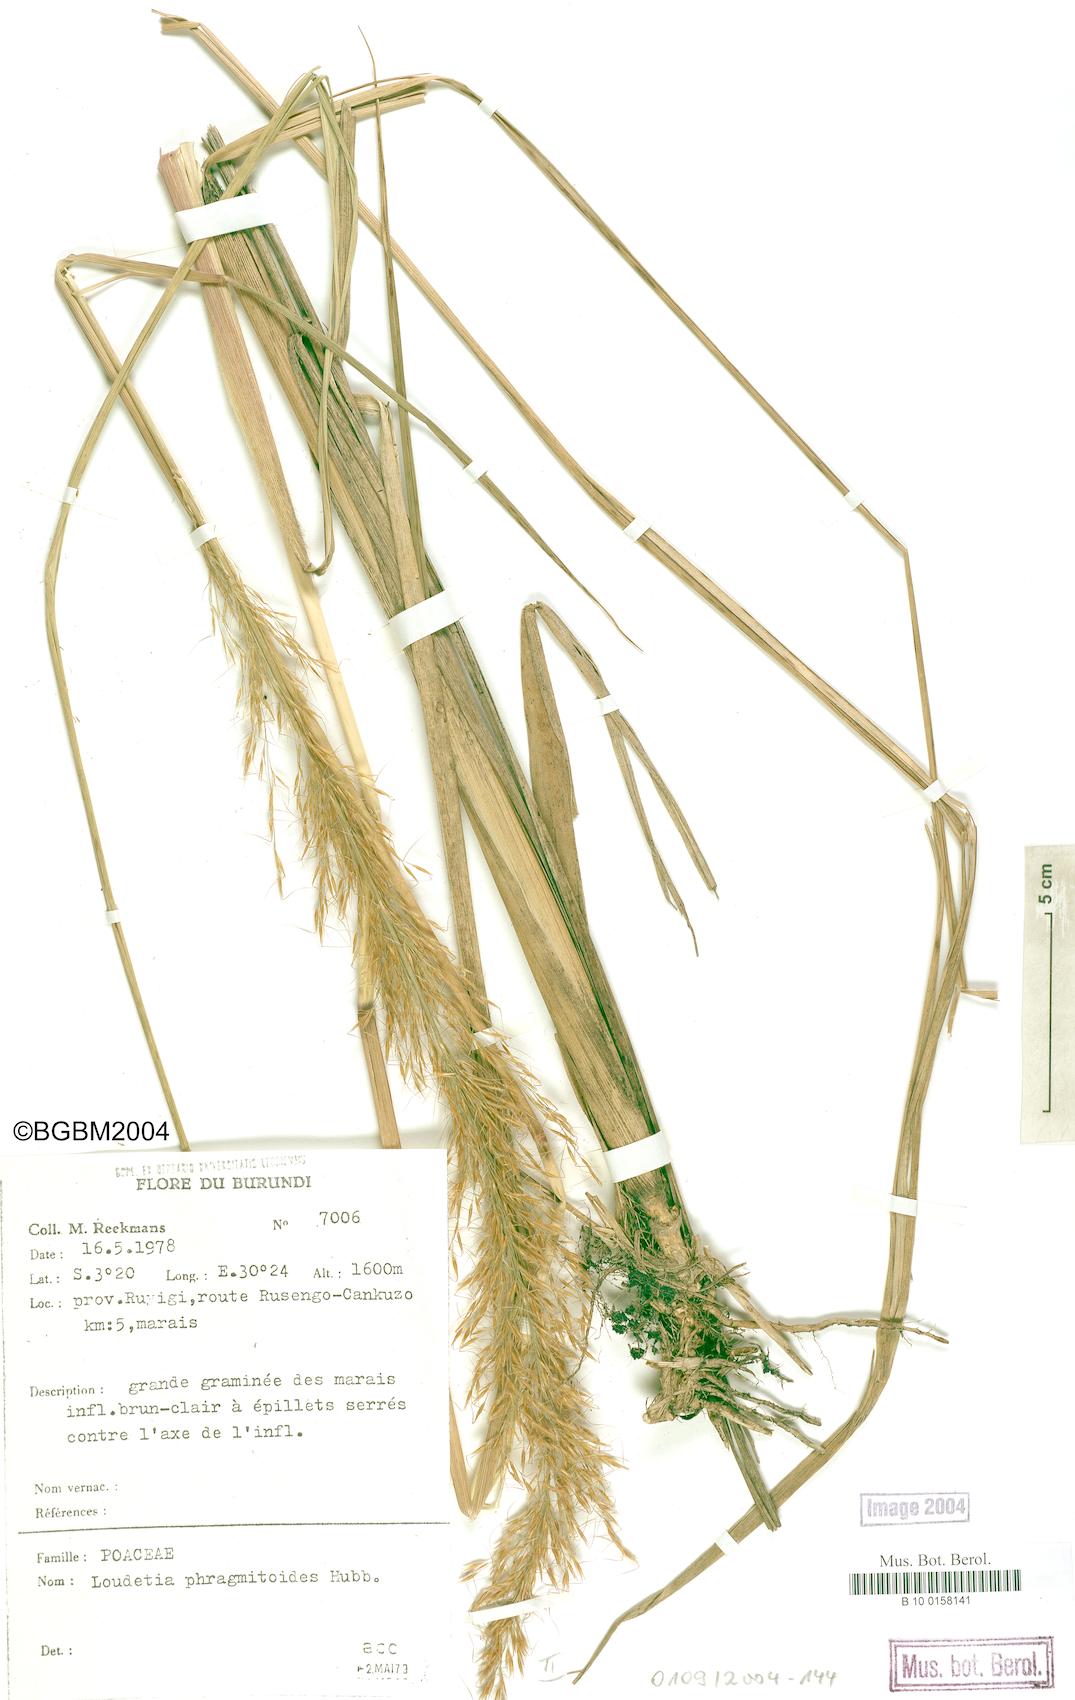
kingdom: Plantae
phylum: Tracheophyta
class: Liliopsida
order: Poales
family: Poaceae
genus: Loudetia
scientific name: Loudetia phragmitoides
